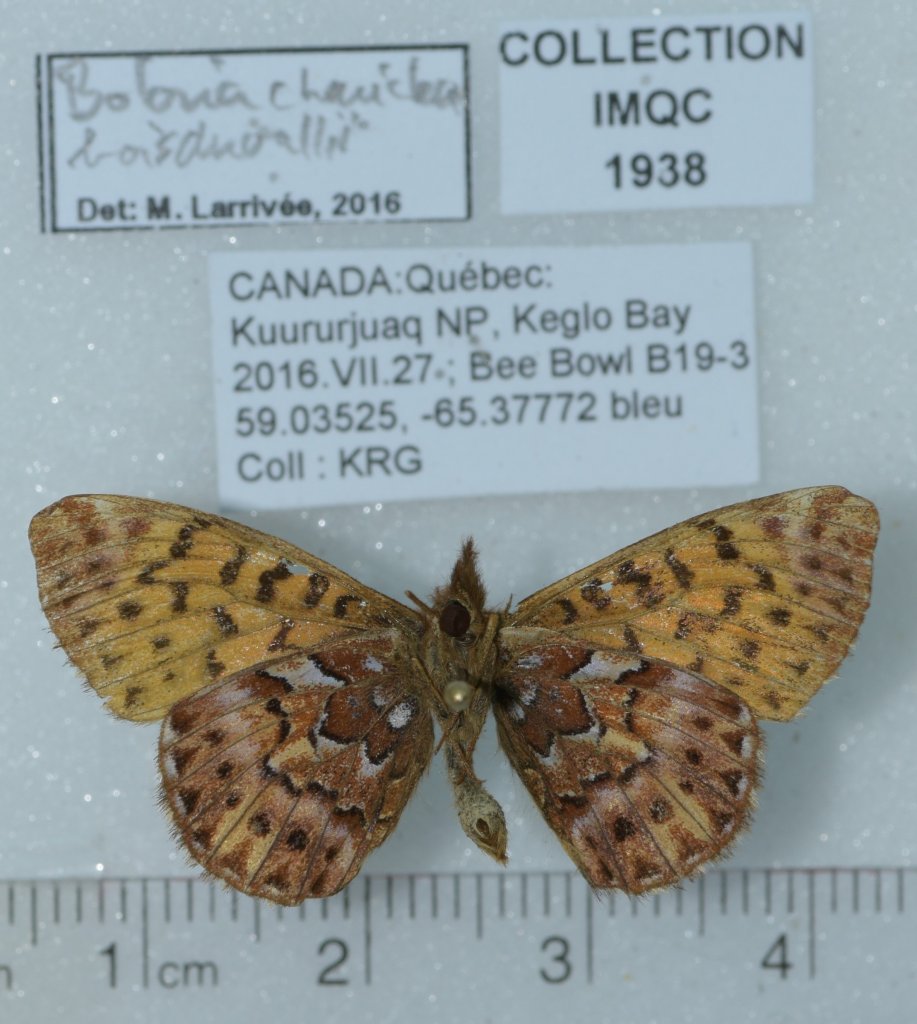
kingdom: Animalia
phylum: Arthropoda
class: Insecta
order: Lepidoptera
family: Nymphalidae
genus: Boloria
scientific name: Boloria chariclea
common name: Arctic Fritillary
